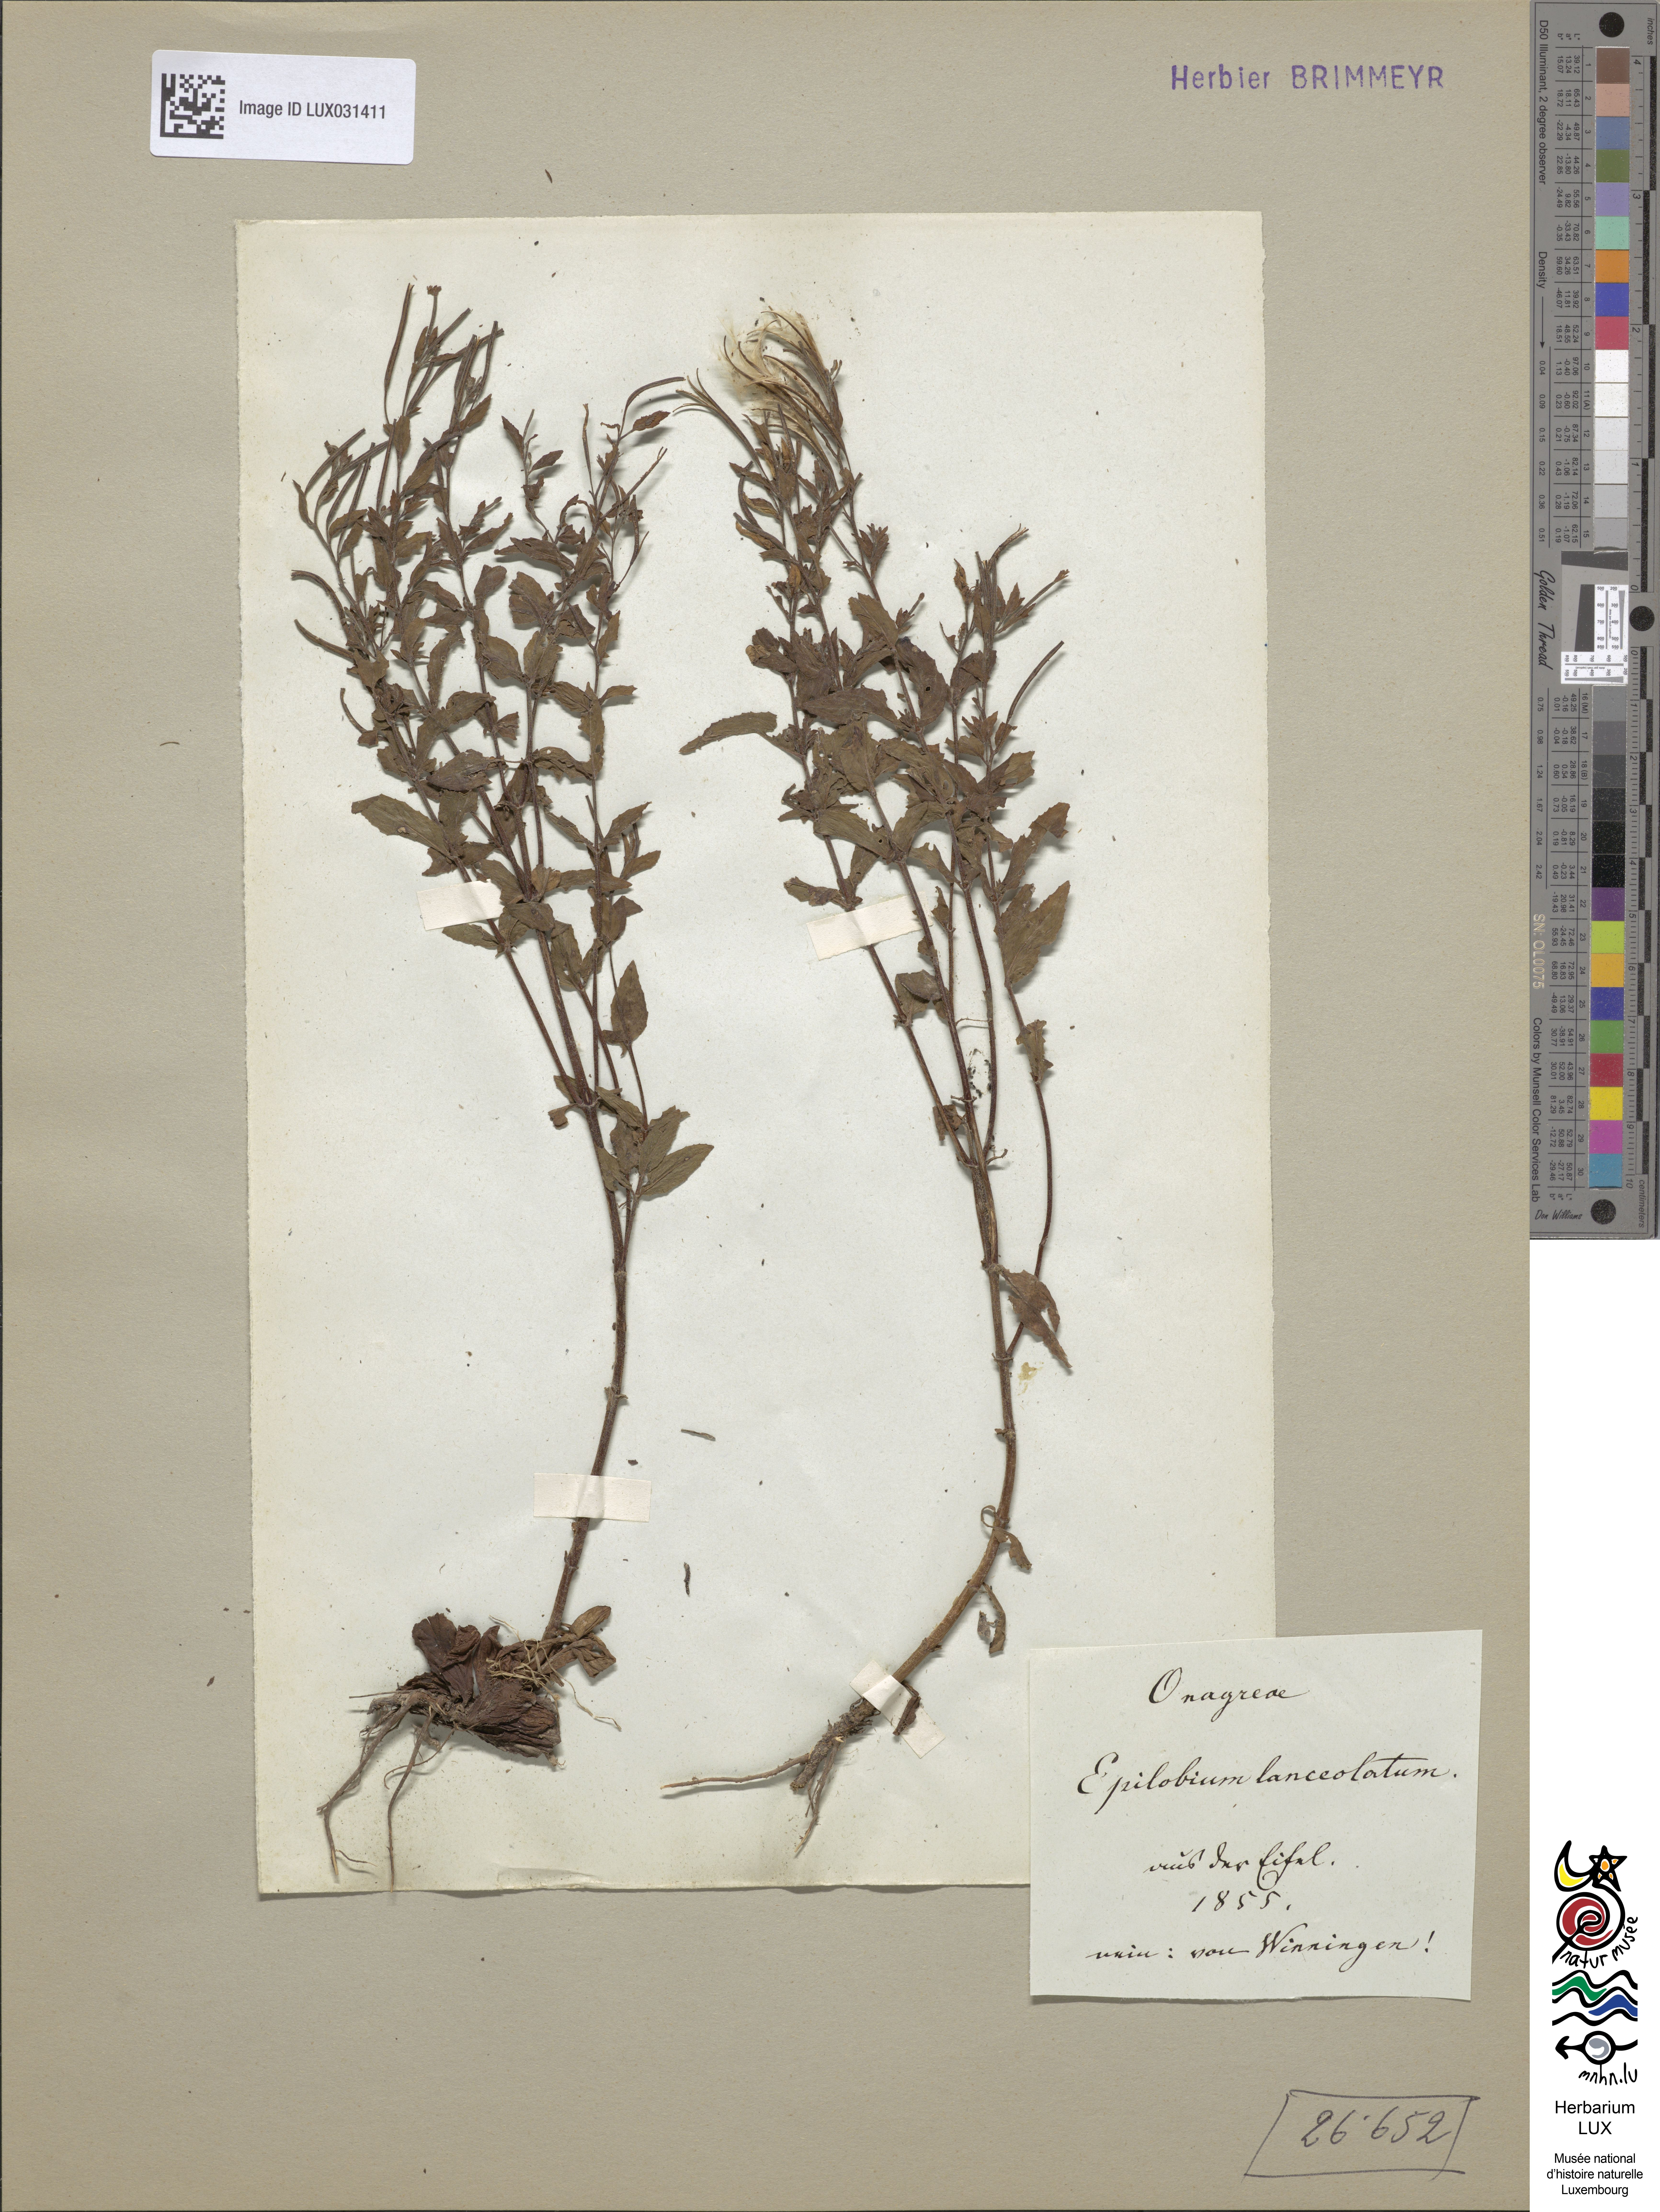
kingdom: Plantae
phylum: Tracheophyta
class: Magnoliopsida
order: Myrtales
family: Onagraceae
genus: Epilobium
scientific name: Epilobium lanceolatum
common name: Spear-leaved willowherb
